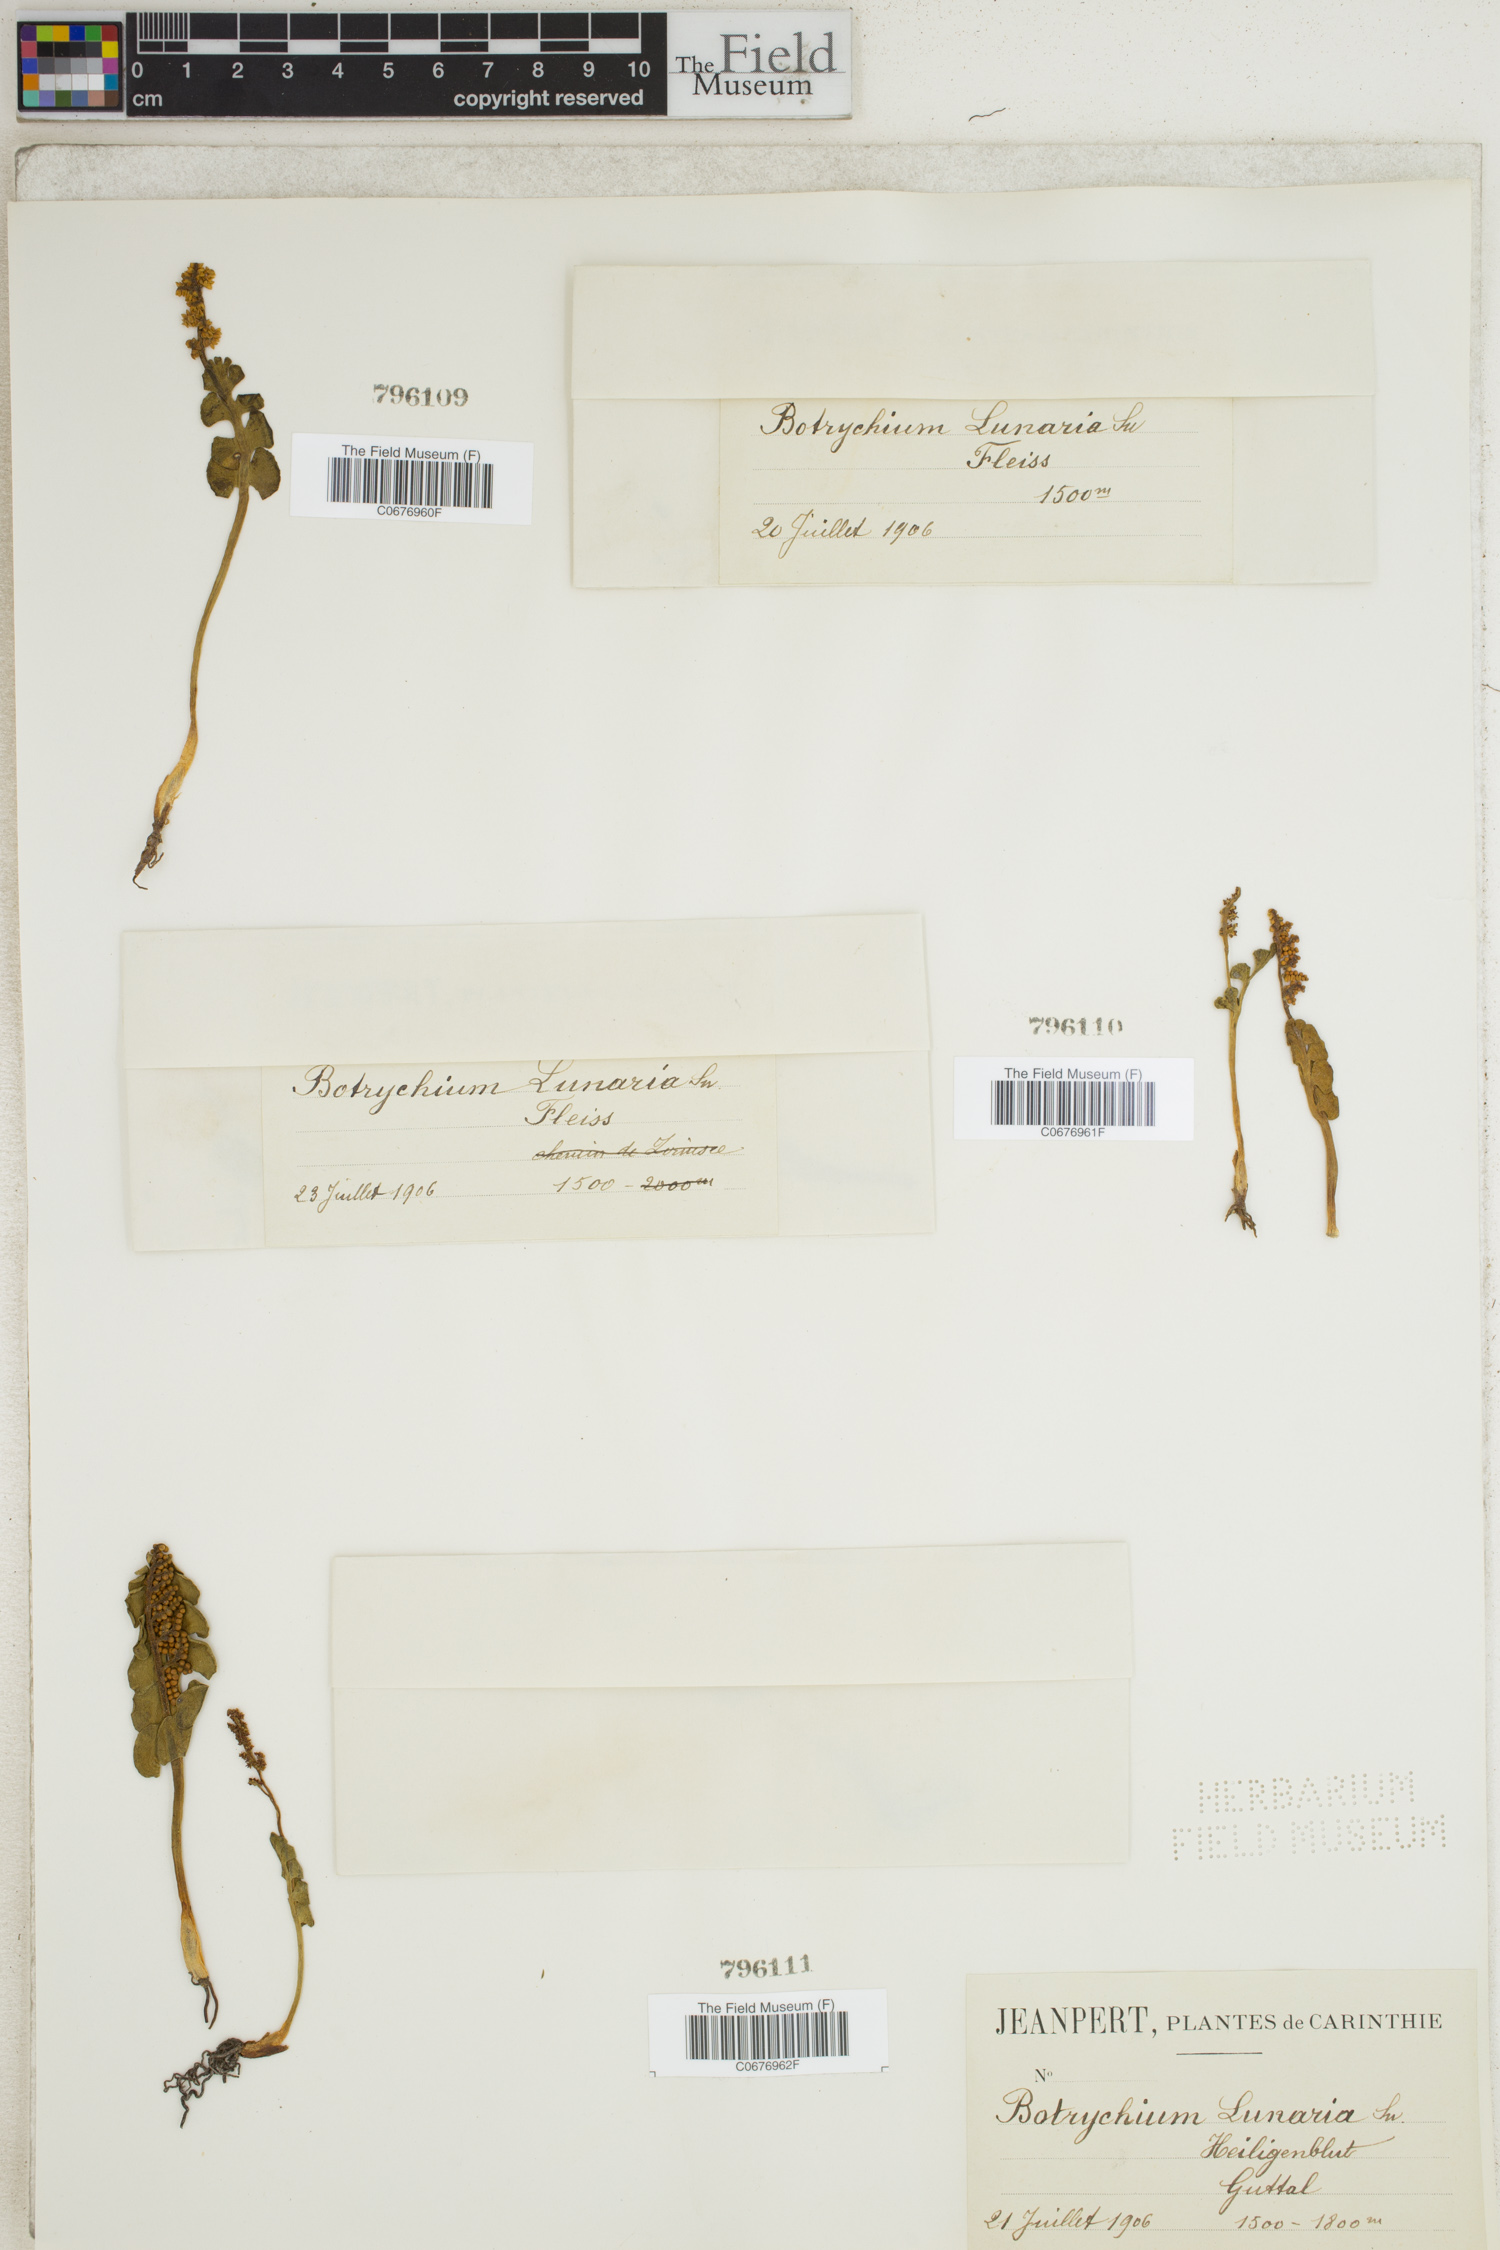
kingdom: Plantae
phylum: Tracheophyta
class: Polypodiopsida
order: Ophioglossales
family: Ophioglossaceae
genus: Botrychium
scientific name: Botrychium lunaria
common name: Moonwort
